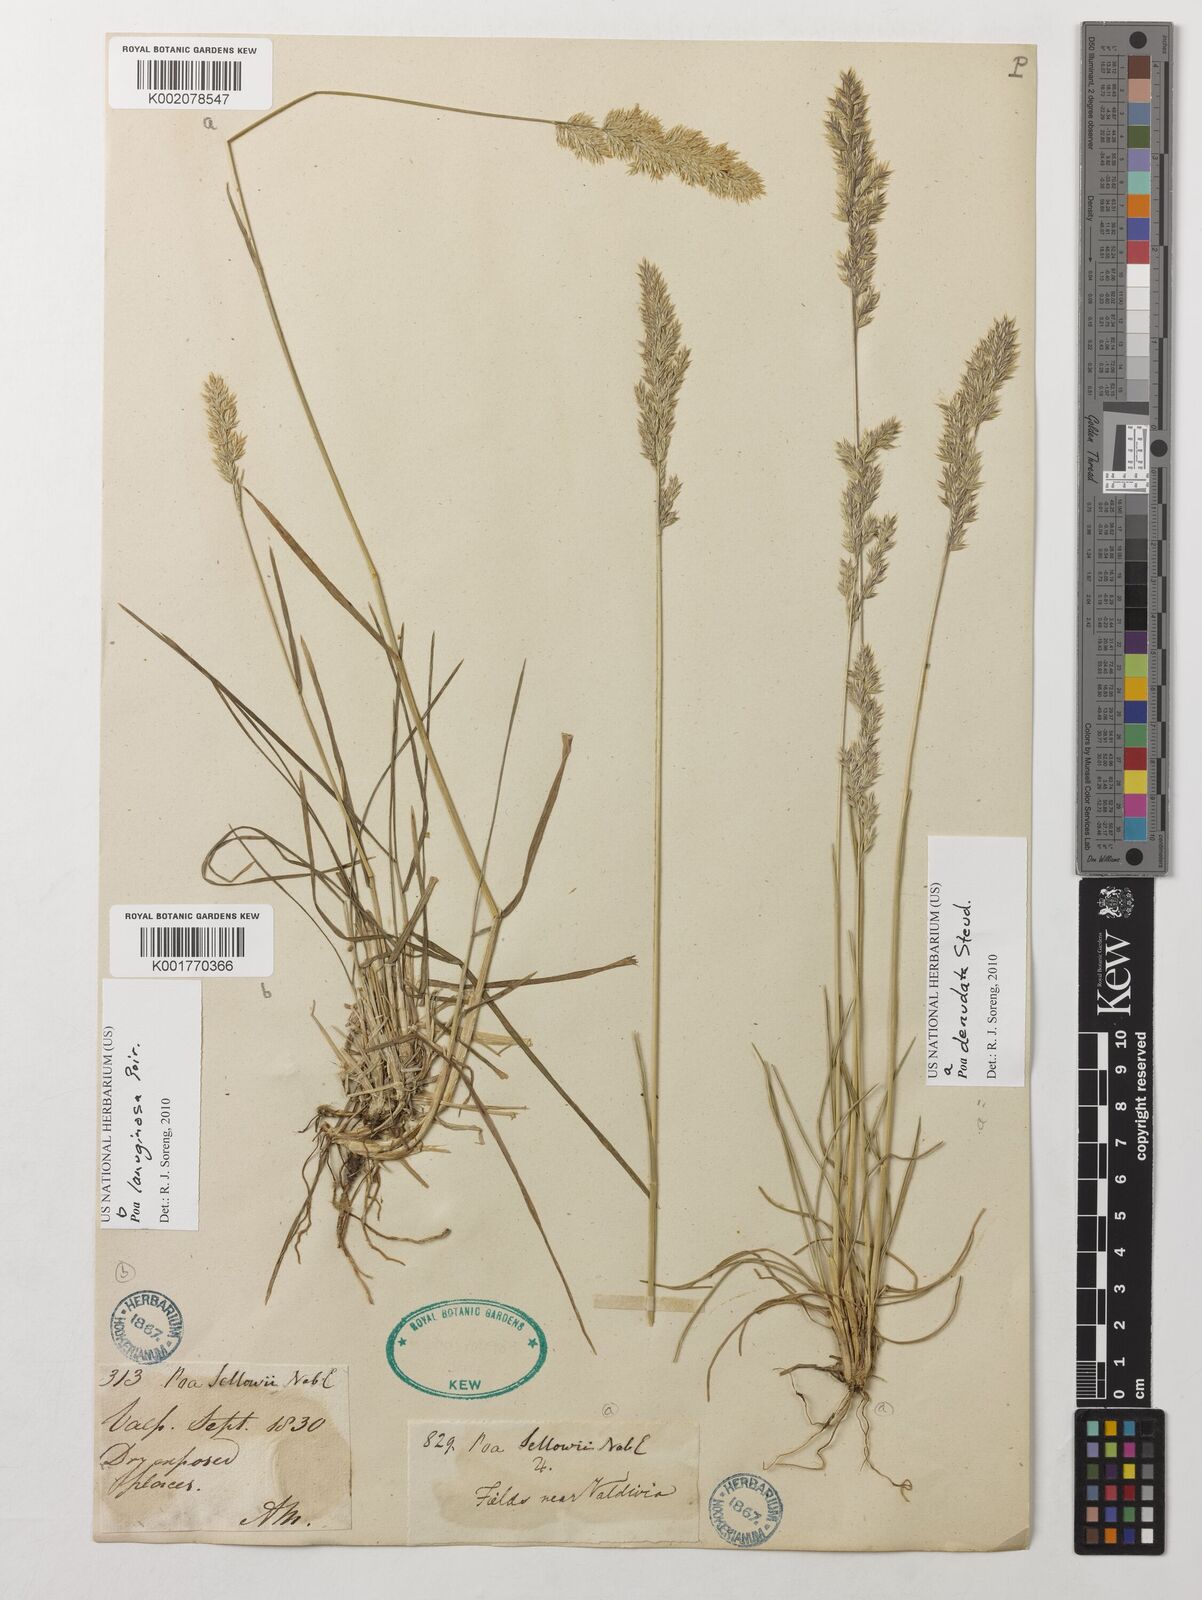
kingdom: Plantae
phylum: Tracheophyta
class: Liliopsida
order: Poales
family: Poaceae
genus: Poa
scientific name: Poa lanuginosa
